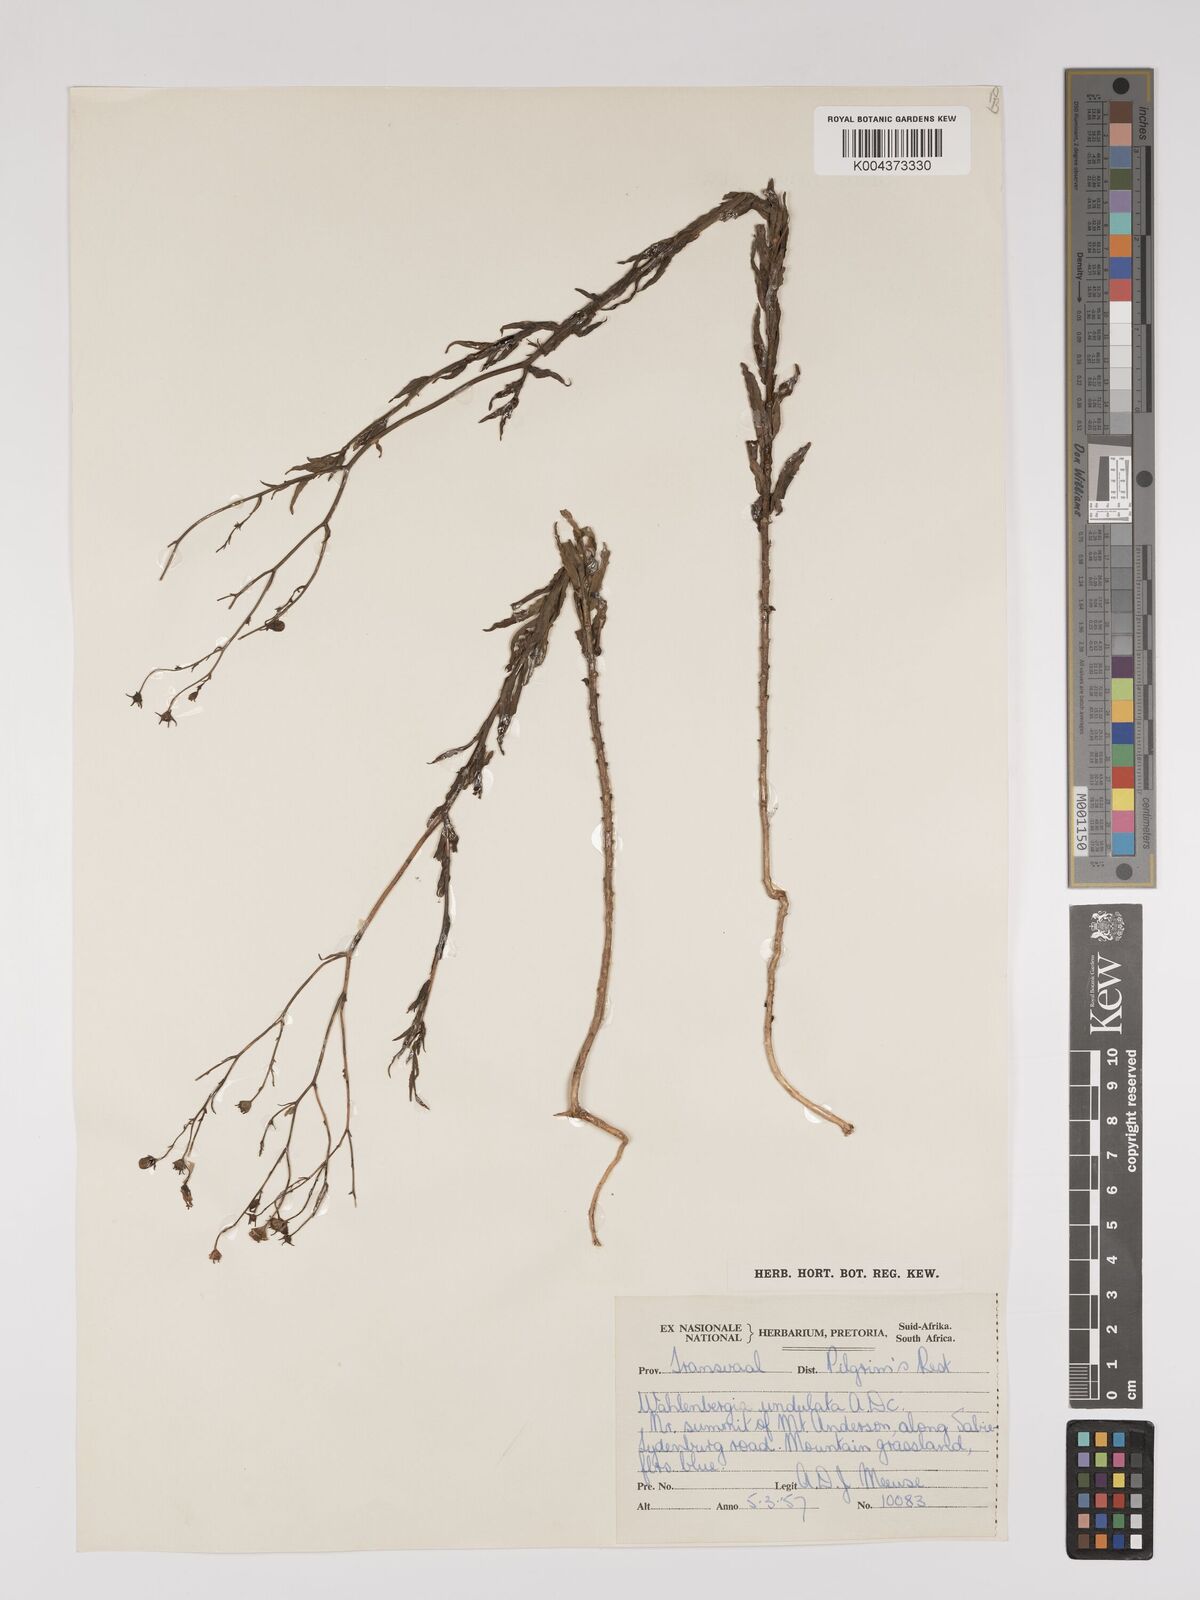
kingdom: Plantae
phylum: Tracheophyta
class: Magnoliopsida
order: Asterales
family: Campanulaceae
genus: Wahlenbergia
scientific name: Wahlenbergia undulata
